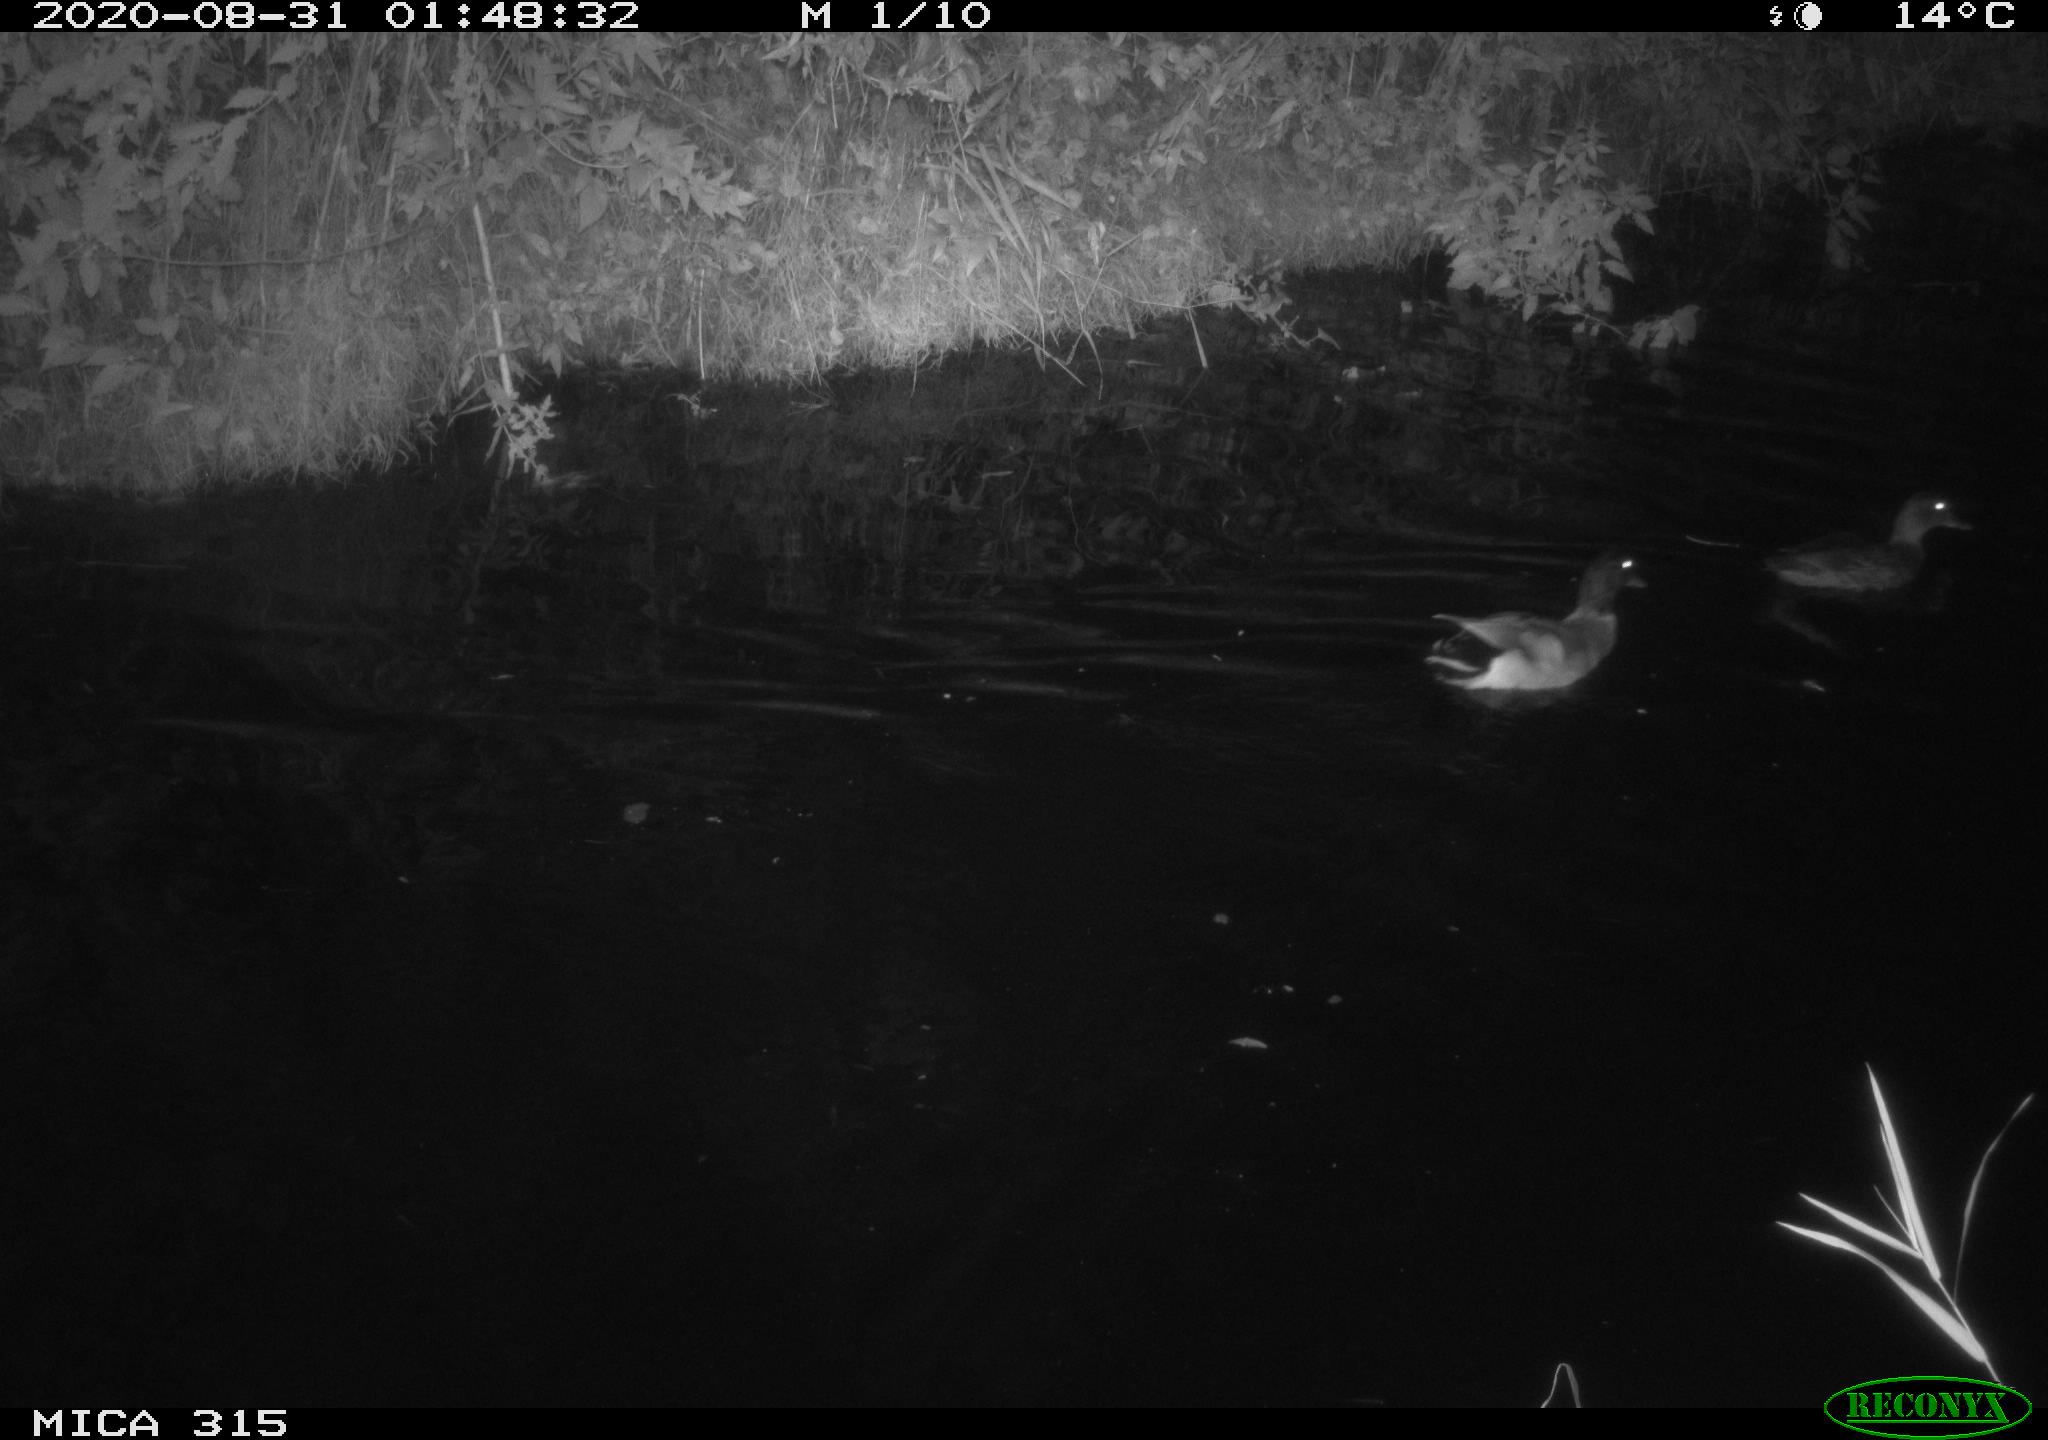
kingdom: Animalia
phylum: Chordata
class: Aves
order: Anseriformes
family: Anatidae
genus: Anas
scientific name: Anas platyrhynchos
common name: Mallard
